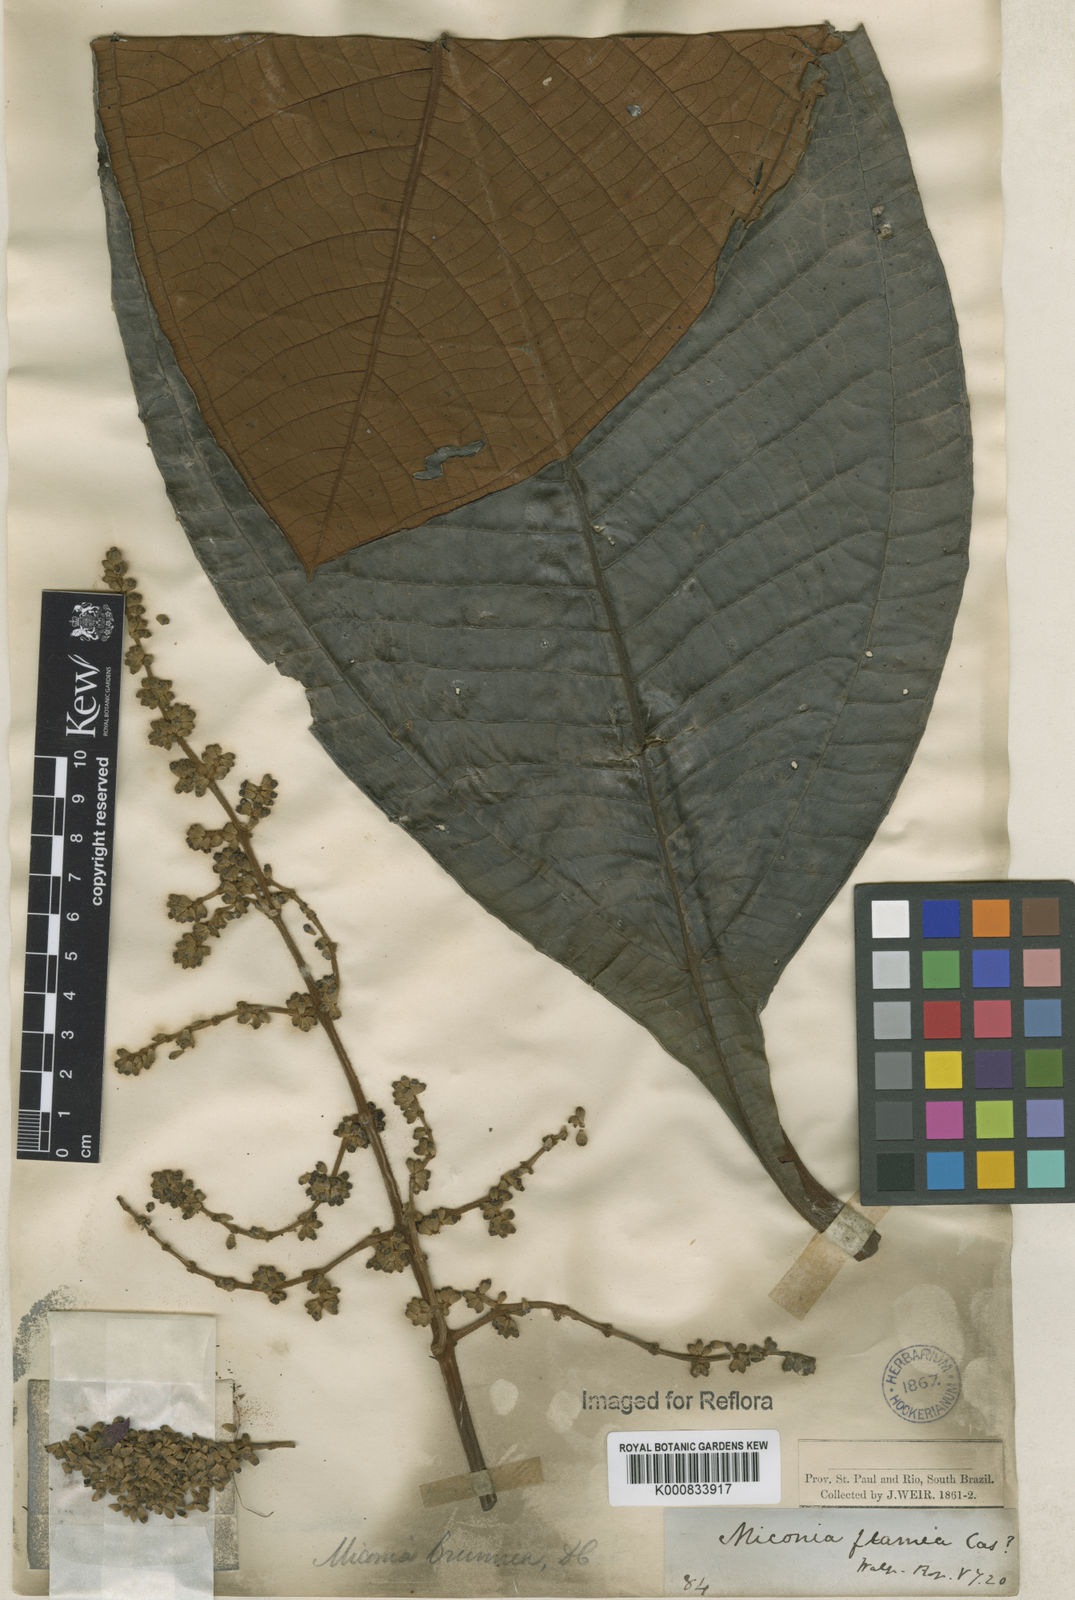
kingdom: Plantae
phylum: Tracheophyta
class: Magnoliopsida
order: Myrtales
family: Melastomataceae
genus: Miconia
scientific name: Miconia brunnea
